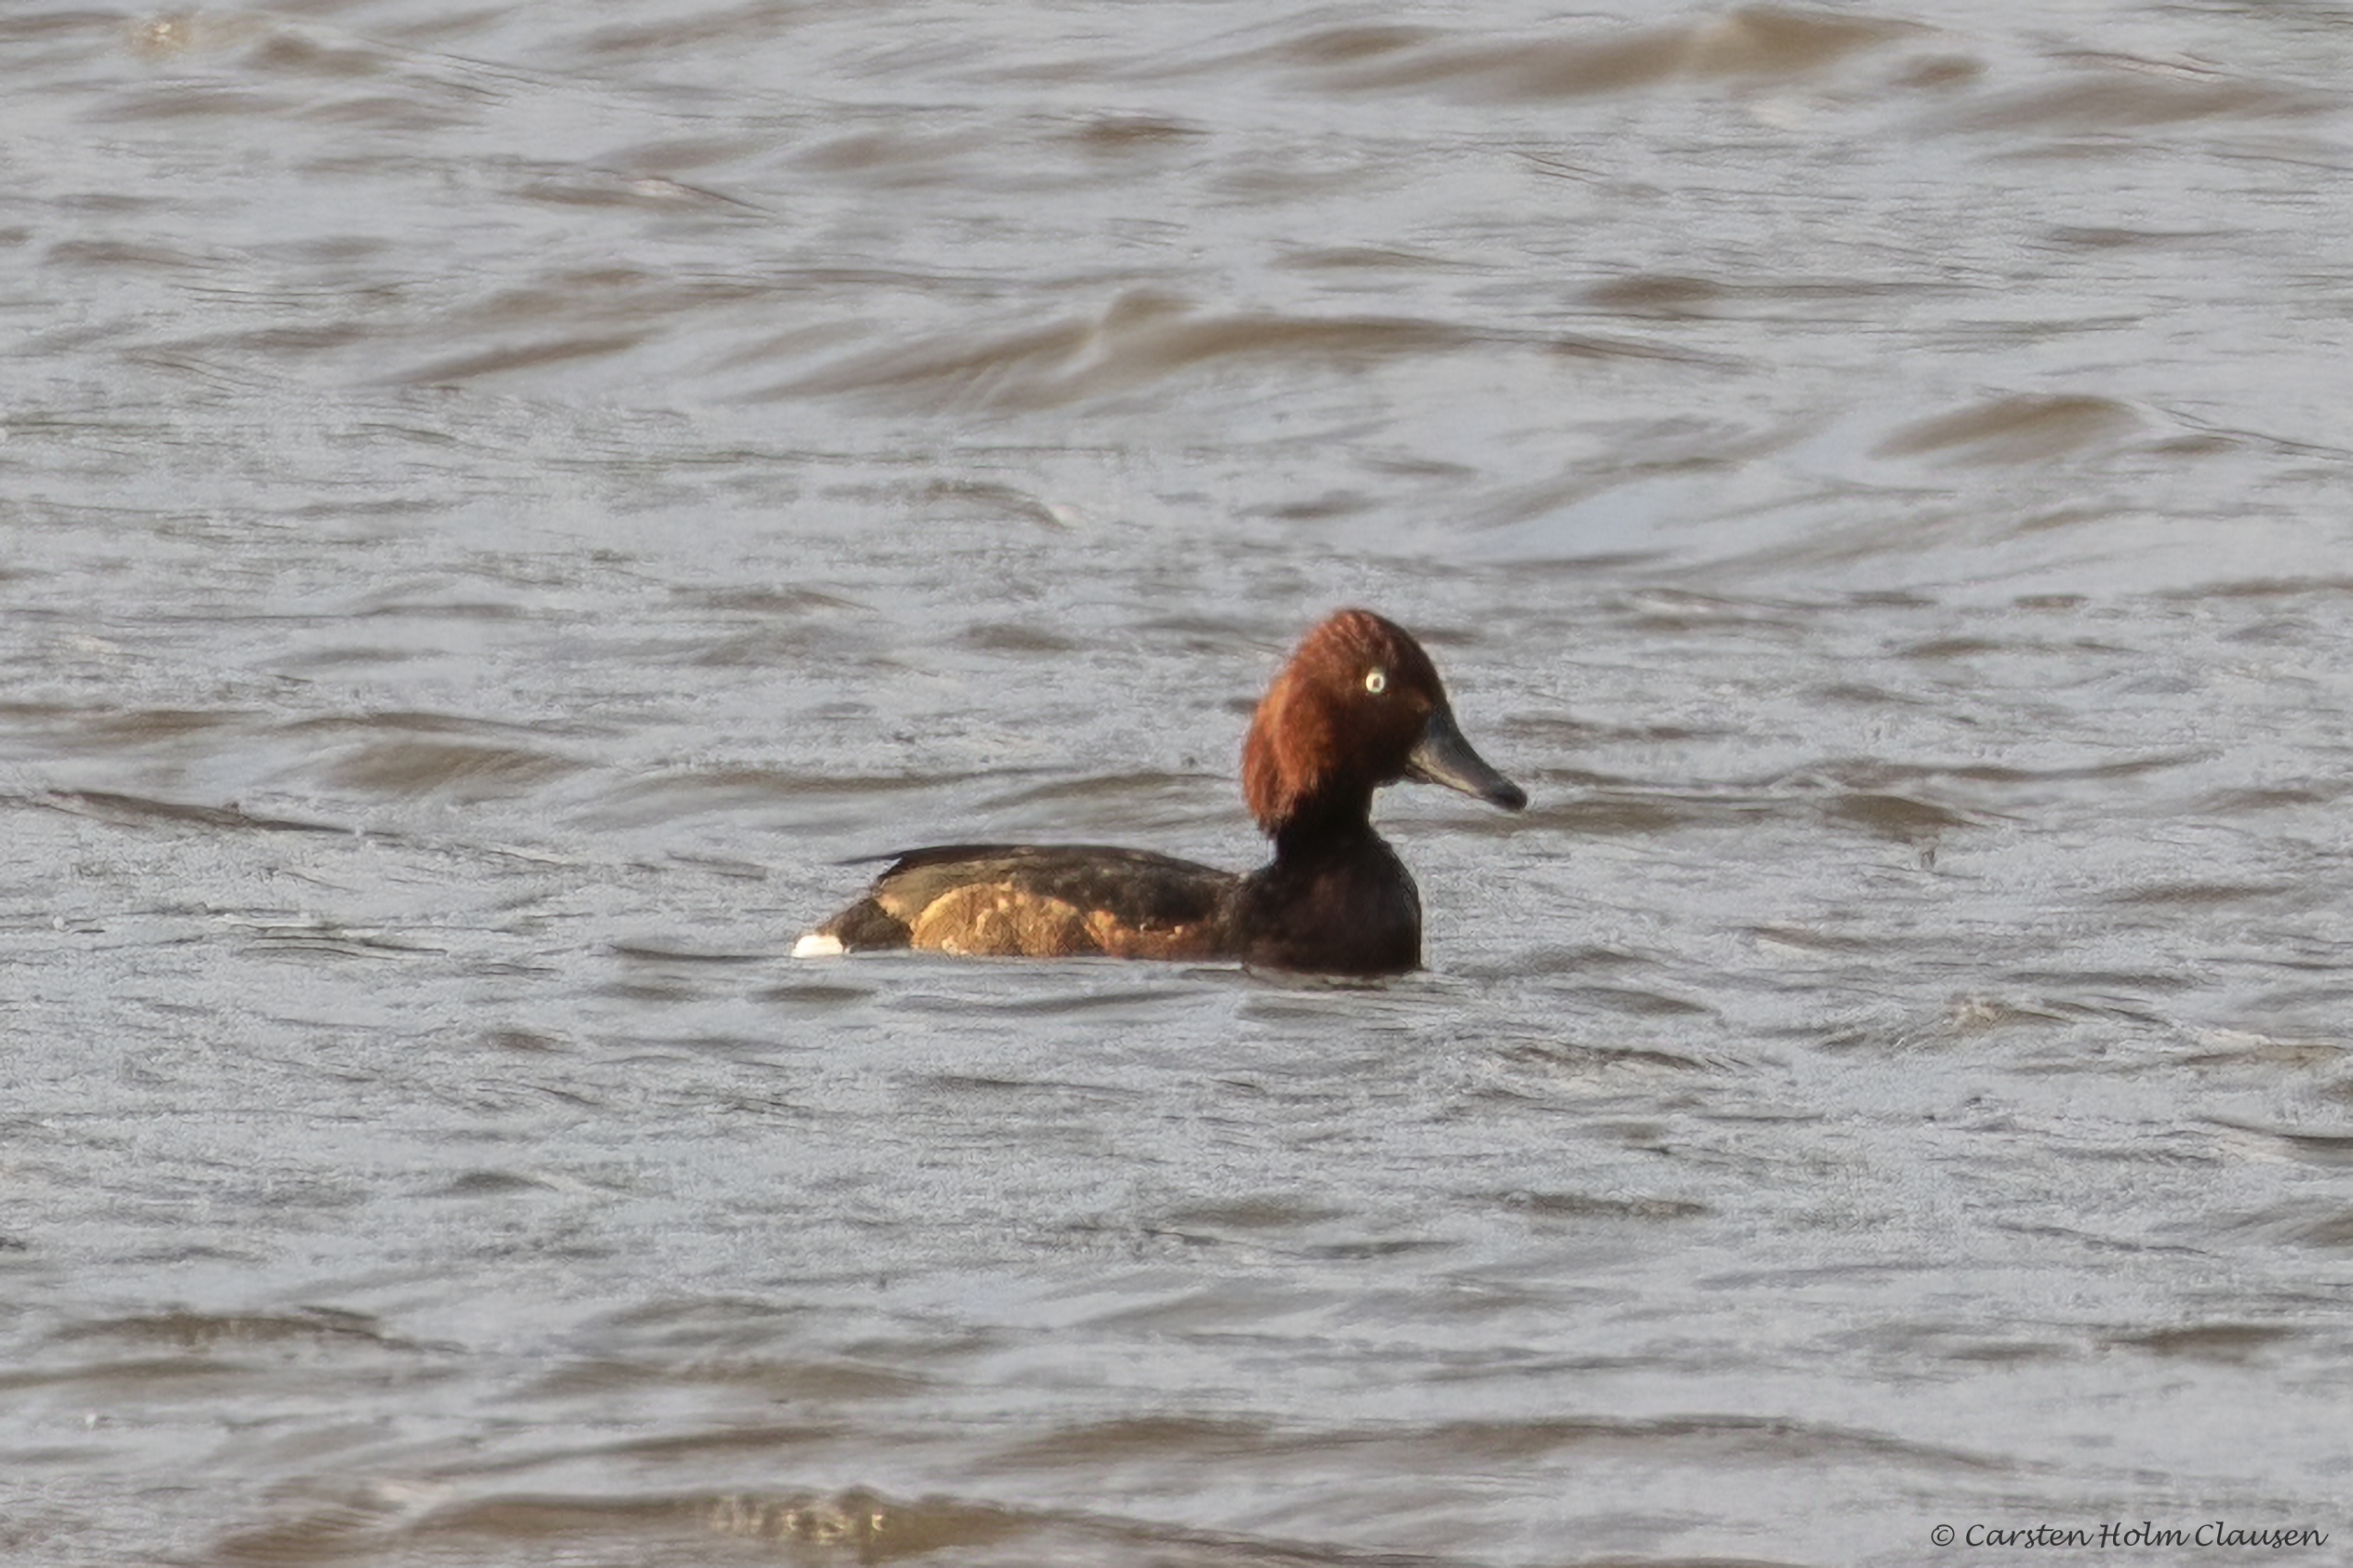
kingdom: Animalia
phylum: Chordata
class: Aves
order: Anseriformes
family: Anatidae
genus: Aythya
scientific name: Aythya nyroca
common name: Hvidøjet and
